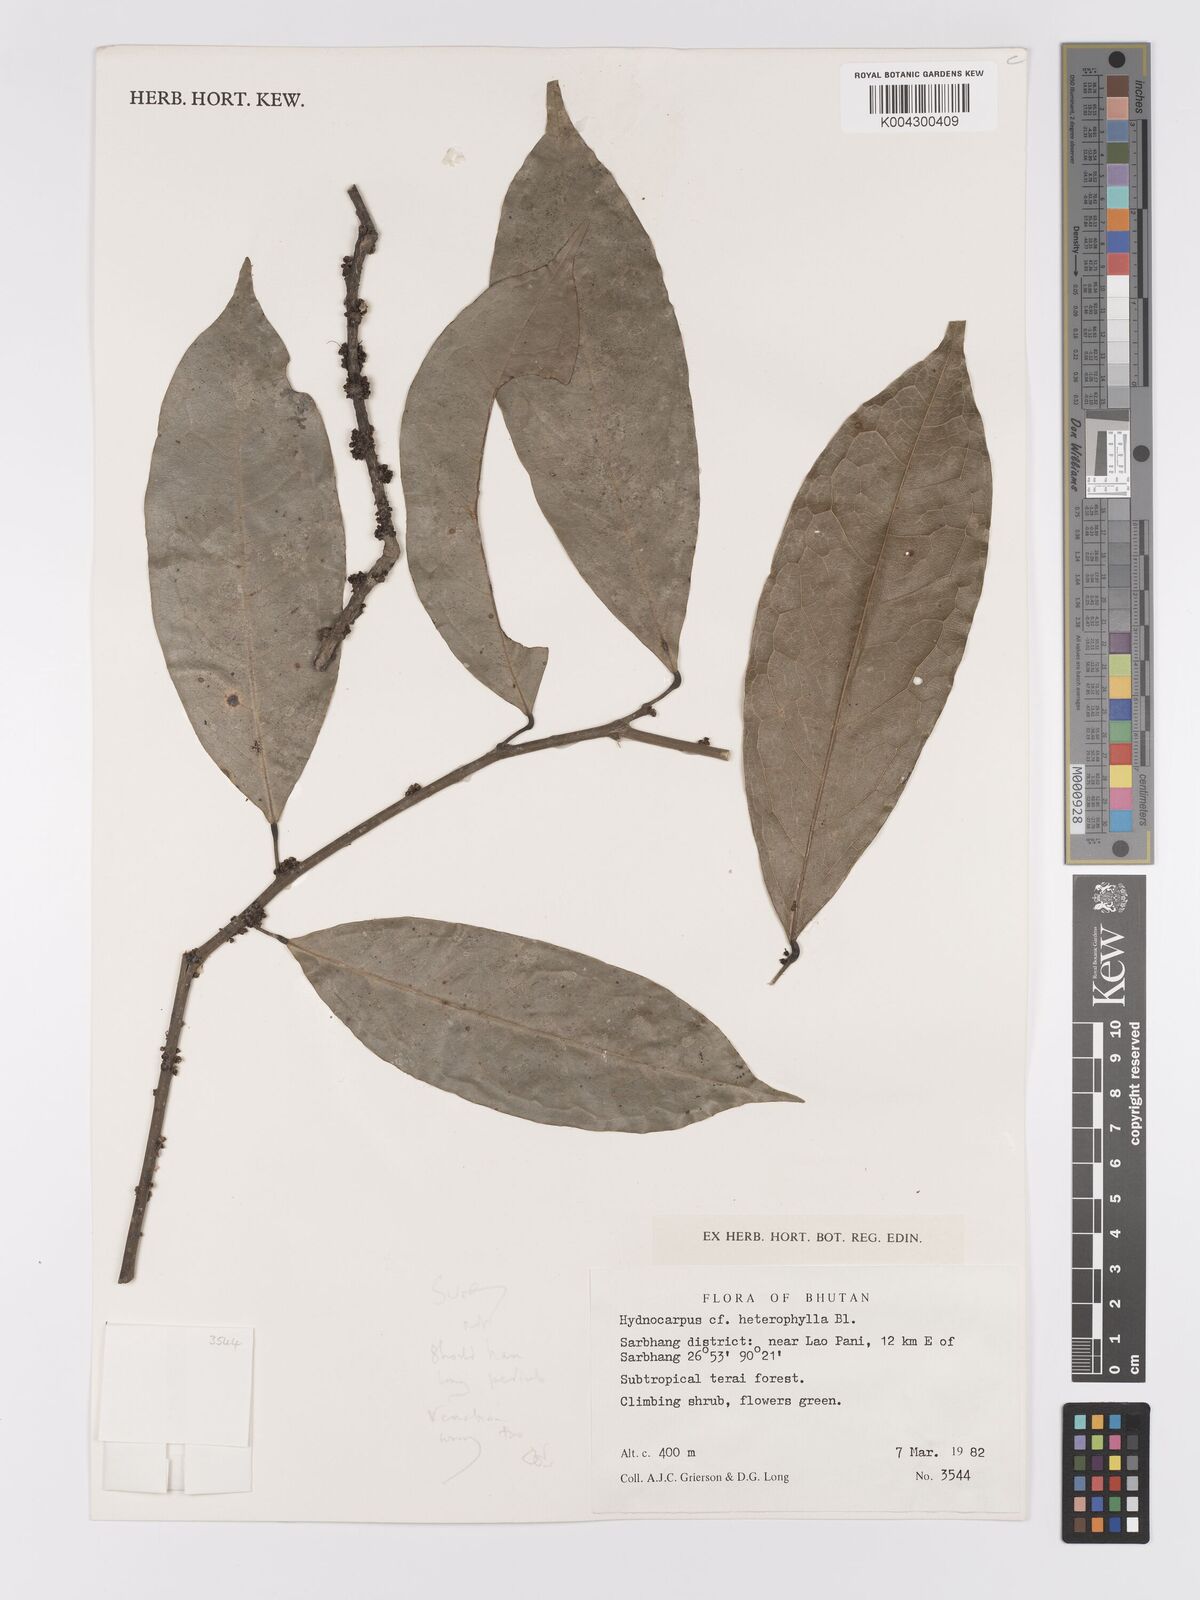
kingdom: Plantae
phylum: Tracheophyta
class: Magnoliopsida
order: Malpighiales
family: Achariaceae
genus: Hydnocarpus
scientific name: Hydnocarpus
